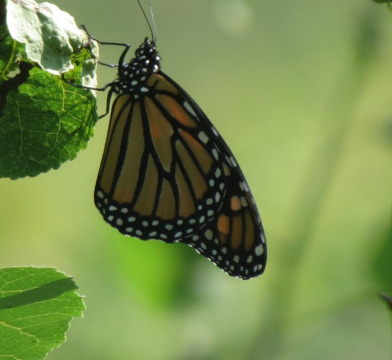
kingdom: Animalia
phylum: Arthropoda
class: Insecta
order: Lepidoptera
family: Nymphalidae
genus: Danaus
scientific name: Danaus plexippus
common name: Monarch
